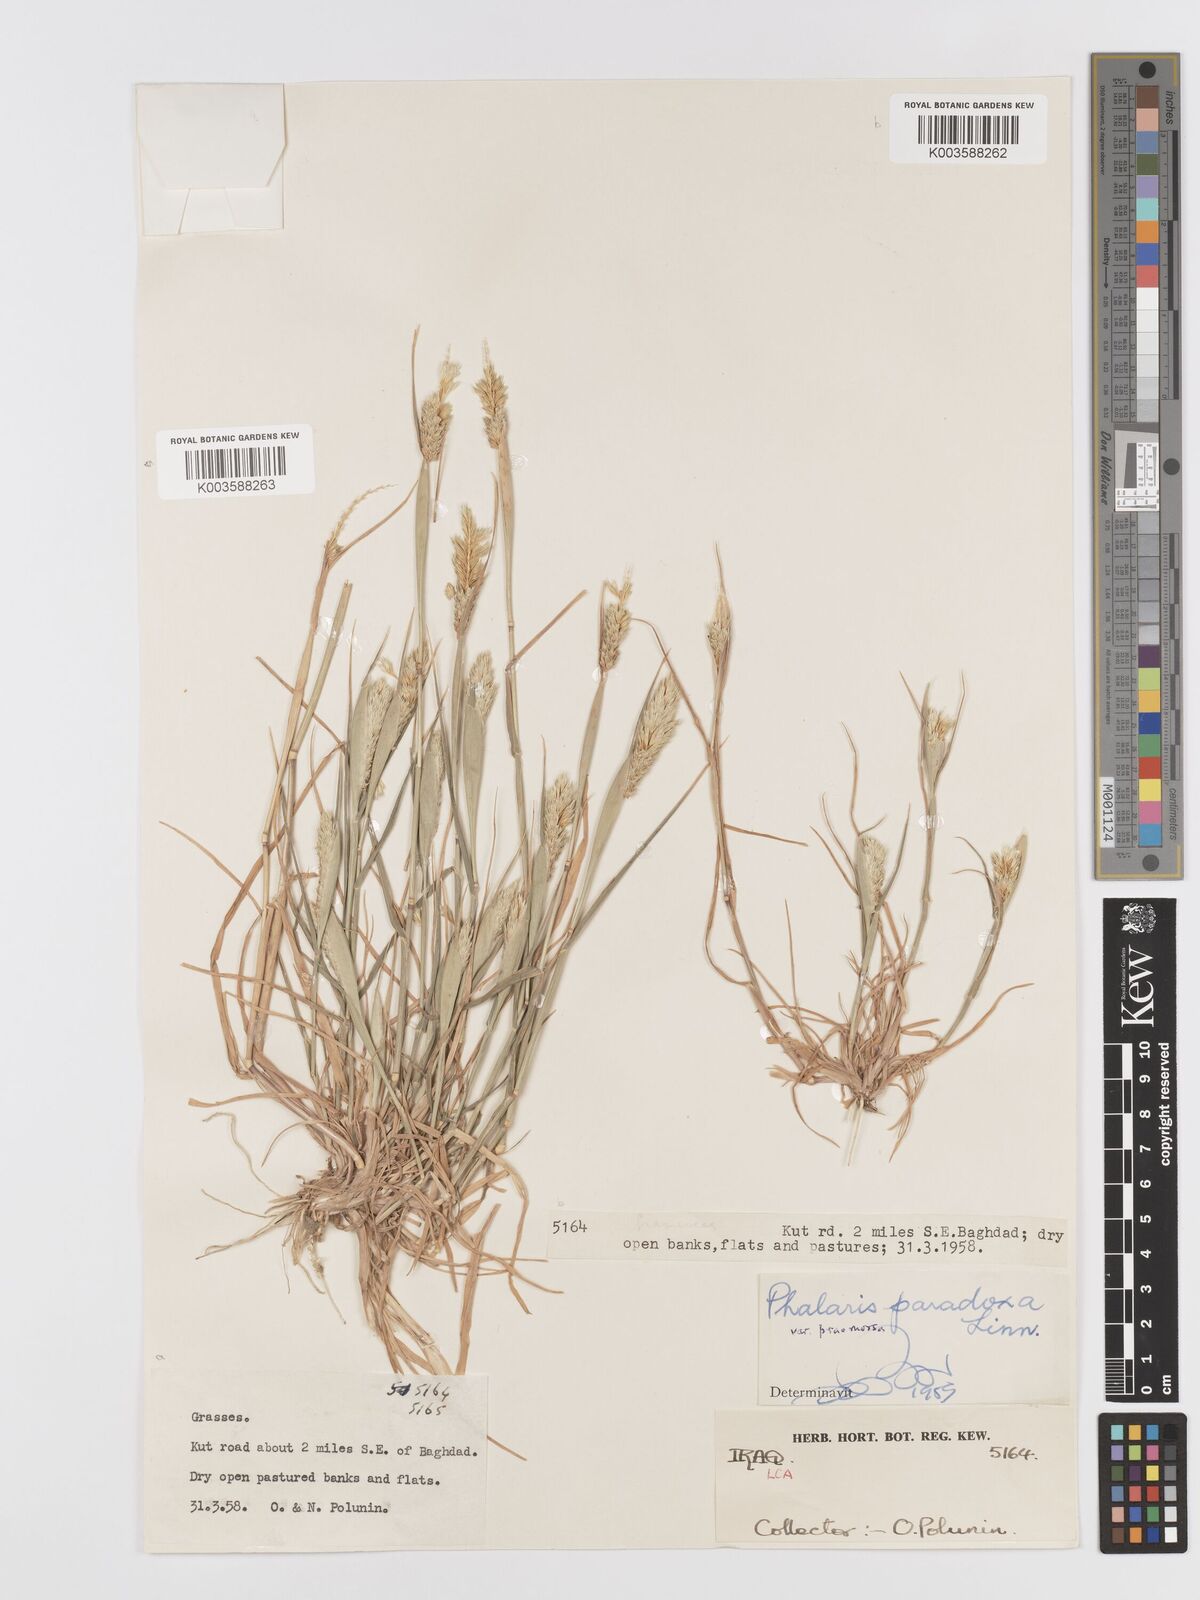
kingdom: Plantae
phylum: Tracheophyta
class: Liliopsida
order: Poales
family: Poaceae
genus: Phalaris
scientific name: Phalaris paradoxa
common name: Awned canary-grass
